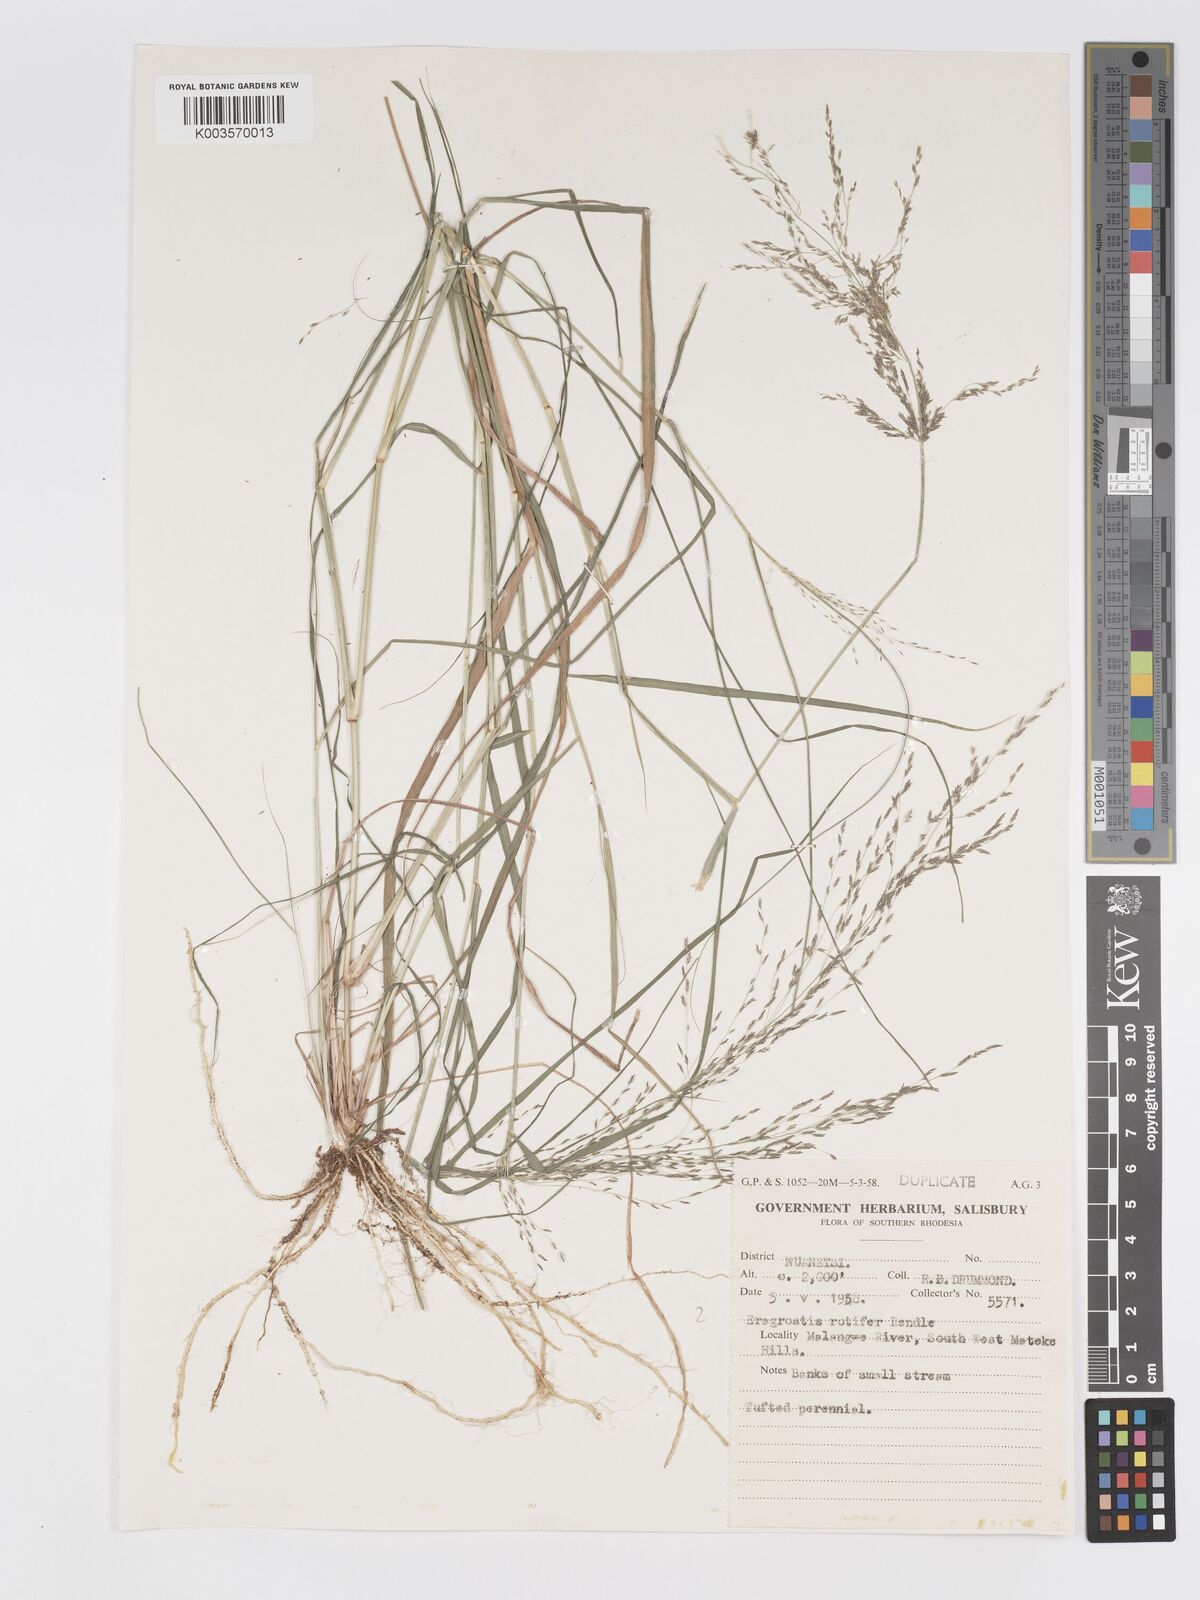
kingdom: Plantae
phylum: Tracheophyta
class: Liliopsida
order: Poales
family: Poaceae
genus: Eragrostis
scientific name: Eragrostis rotifer
